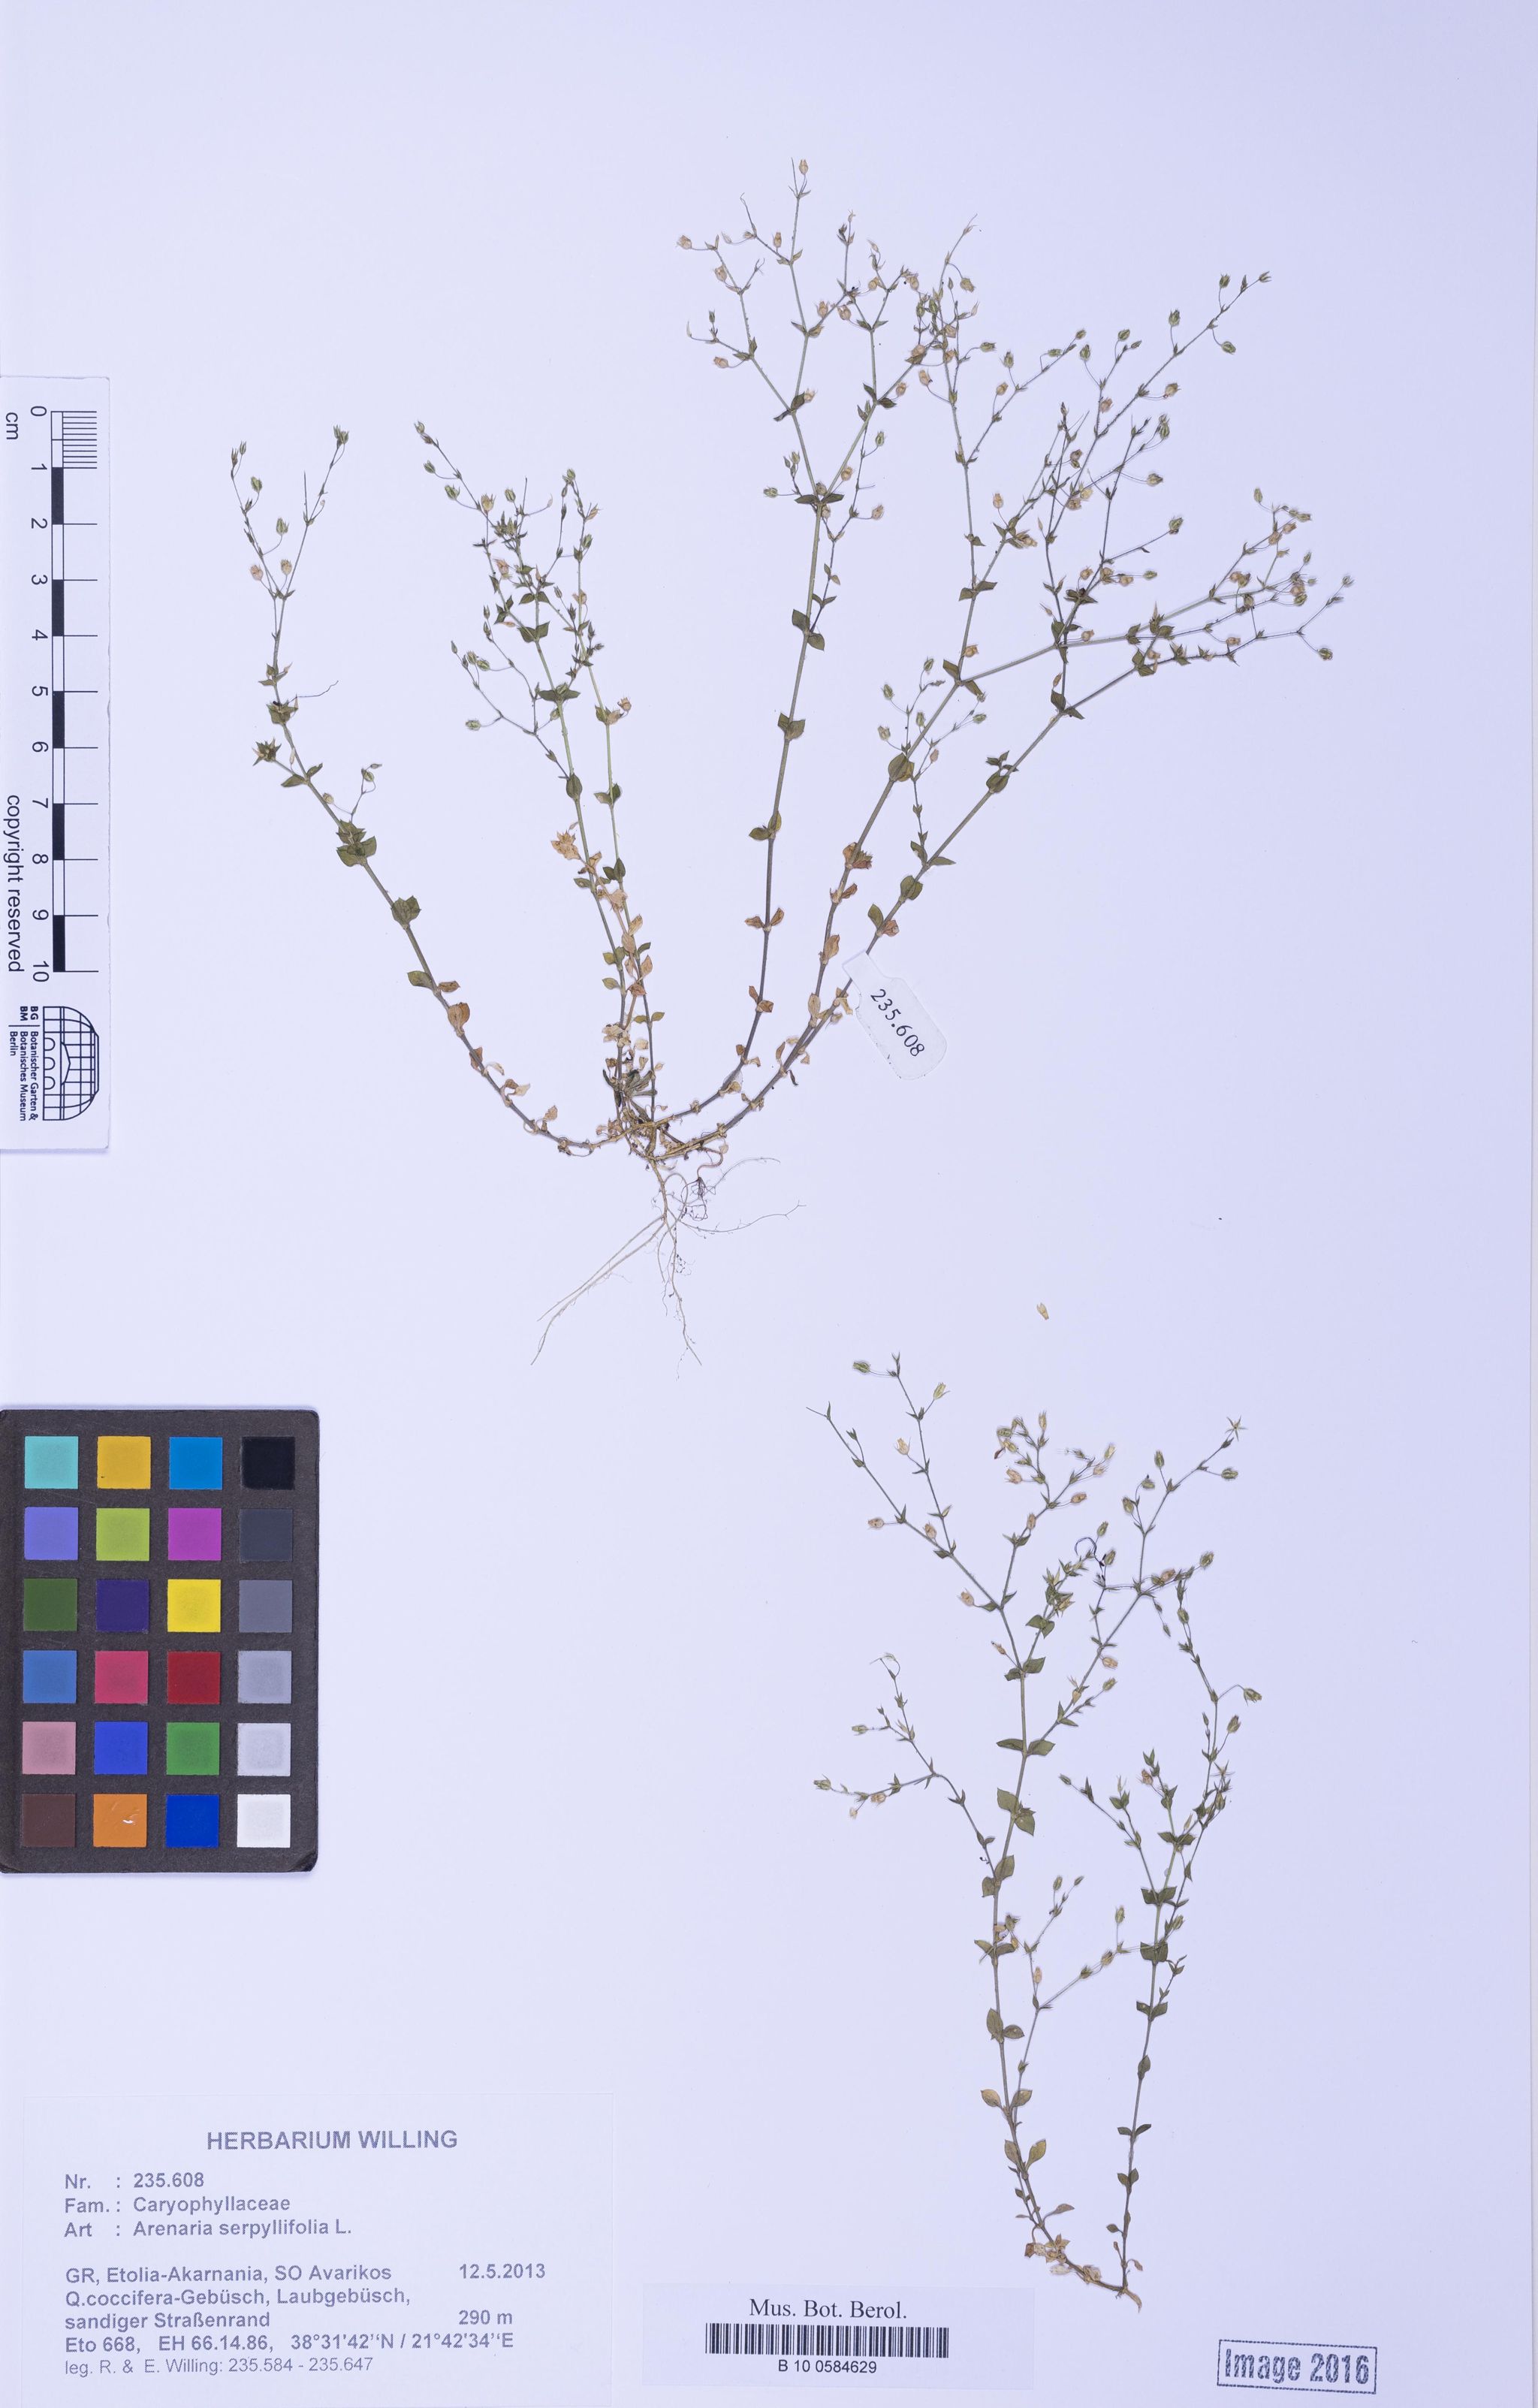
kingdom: Plantae
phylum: Tracheophyta
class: Magnoliopsida
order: Caryophyllales
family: Caryophyllaceae
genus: Arenaria
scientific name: Arenaria serpyllifolia
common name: Thyme-leaved sandwort
